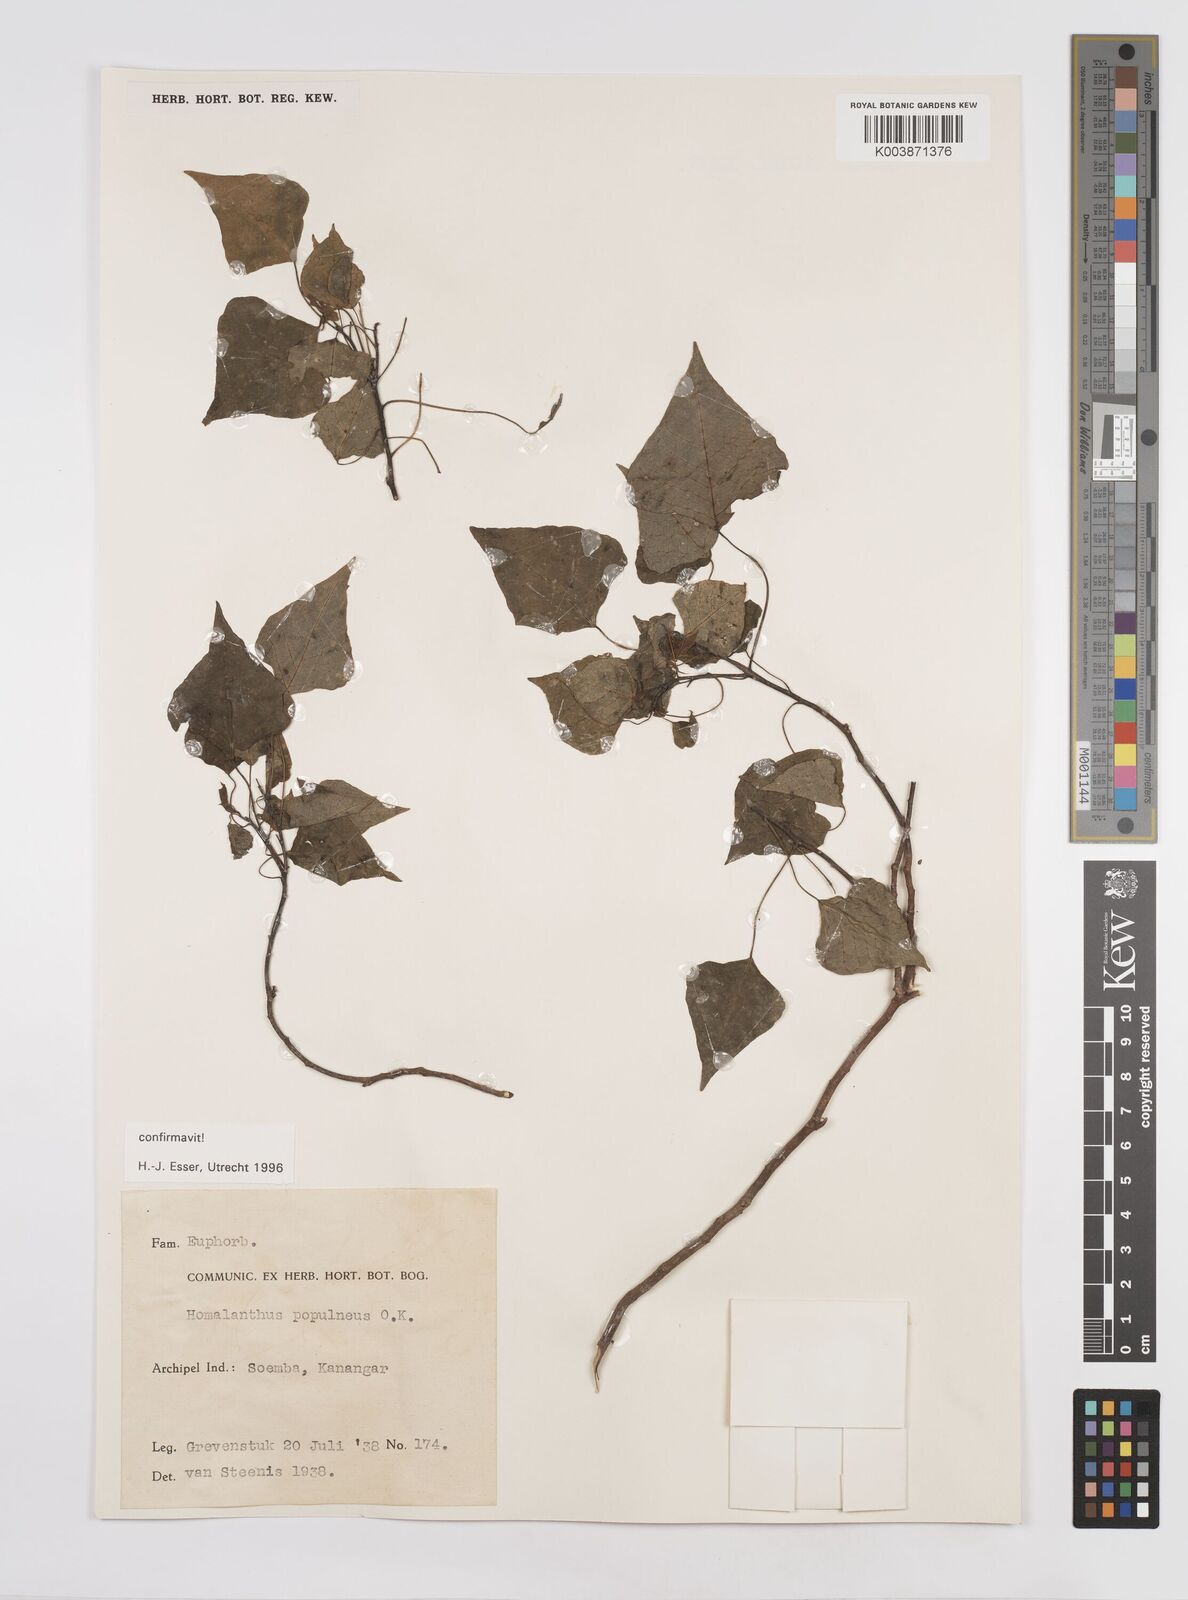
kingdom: Plantae
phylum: Tracheophyta
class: Magnoliopsida
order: Malpighiales
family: Euphorbiaceae
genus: Homalanthus
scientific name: Homalanthus populneus
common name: Spurge
